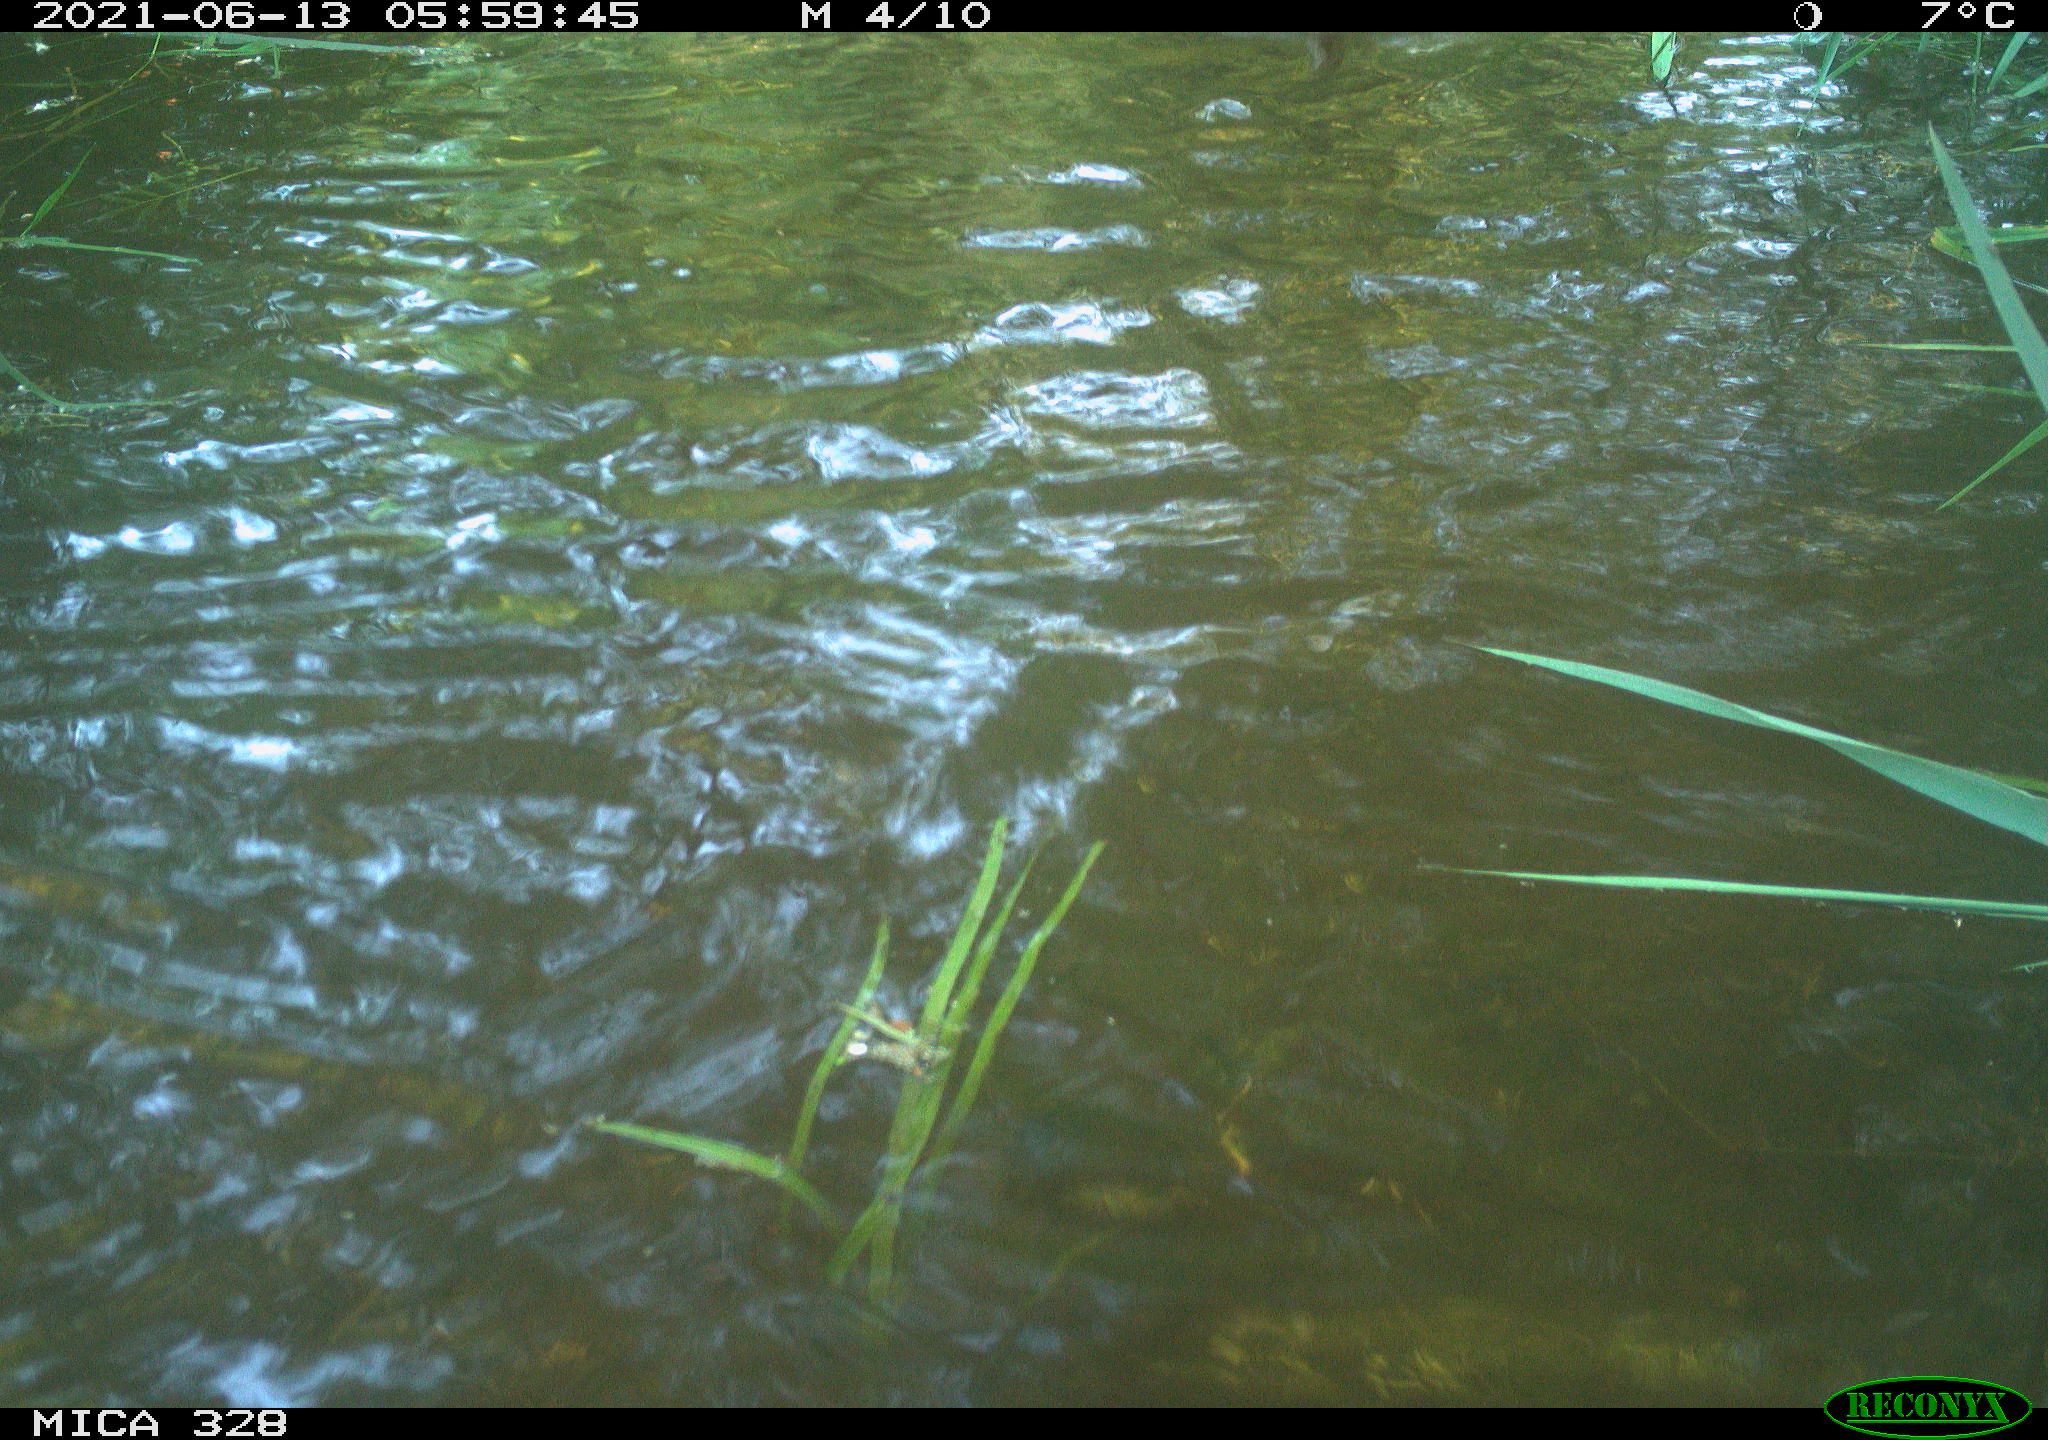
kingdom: Animalia
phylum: Chordata
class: Aves
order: Anseriformes
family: Anatidae
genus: Aix
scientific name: Aix galericulata
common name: Mandarin duck
